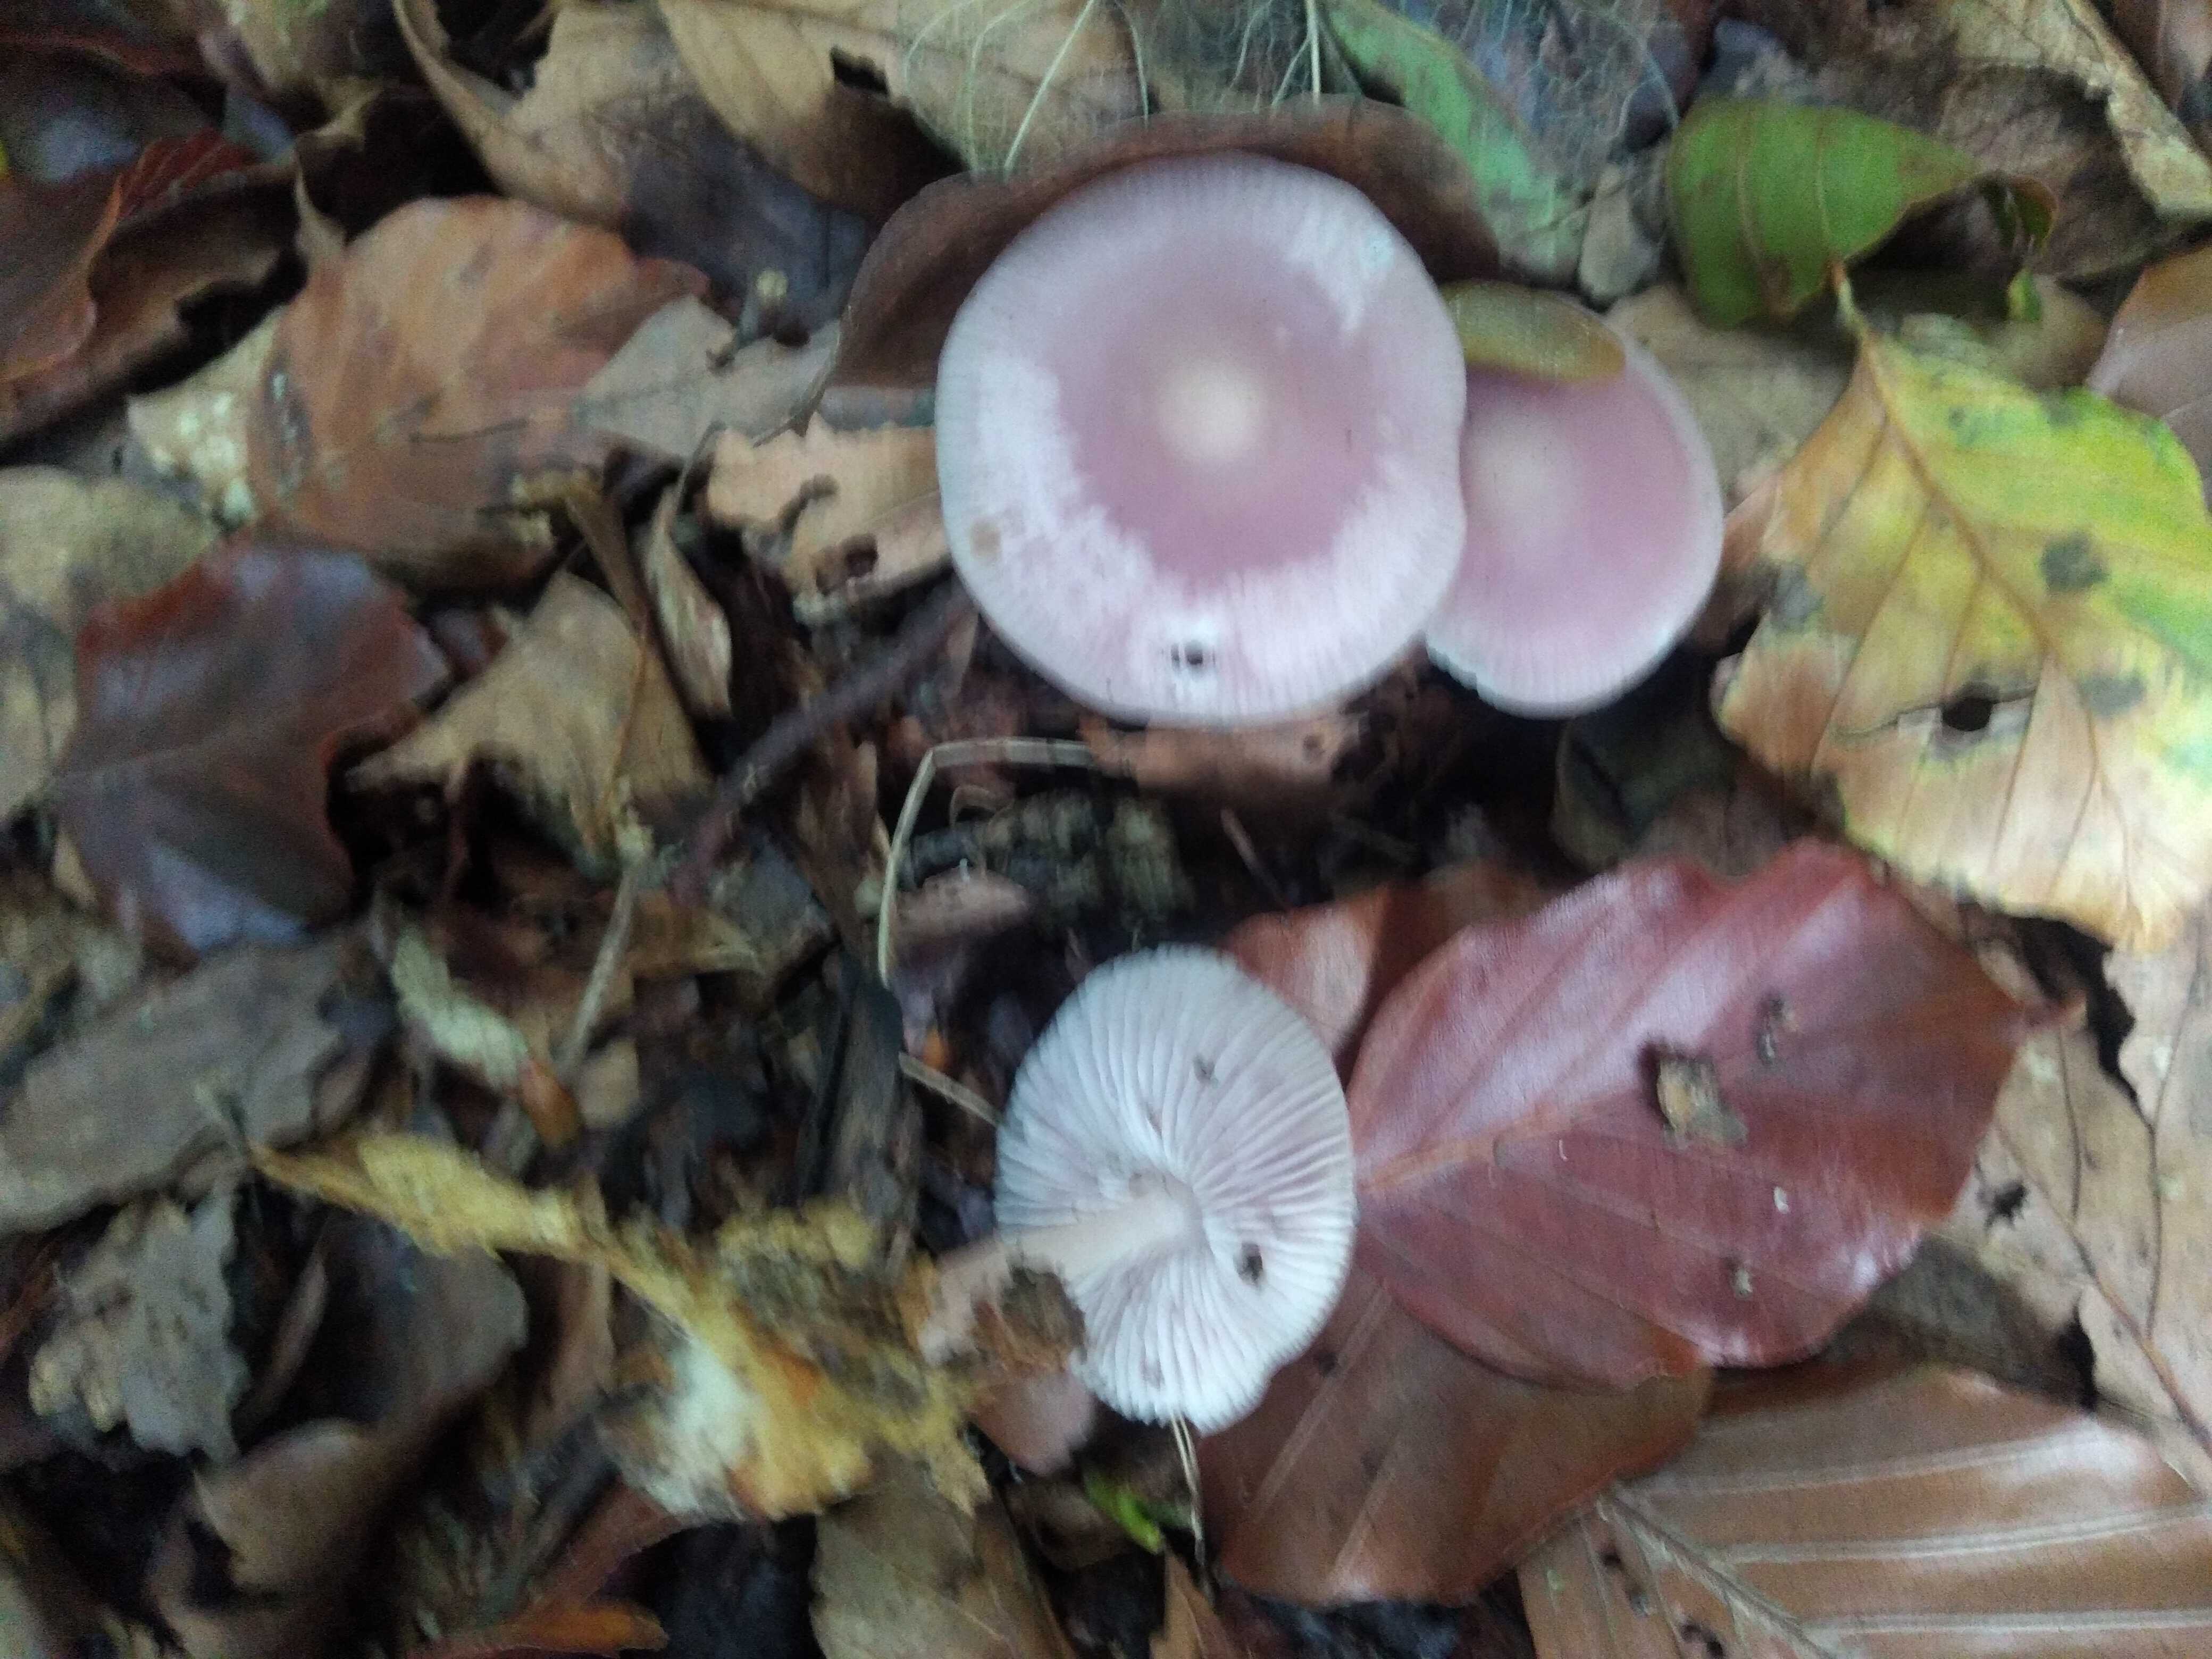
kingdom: Fungi
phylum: Basidiomycota
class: Agaricomycetes
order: Agaricales
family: Mycenaceae
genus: Mycena
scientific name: Mycena rosea
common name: rosa huesvamp
